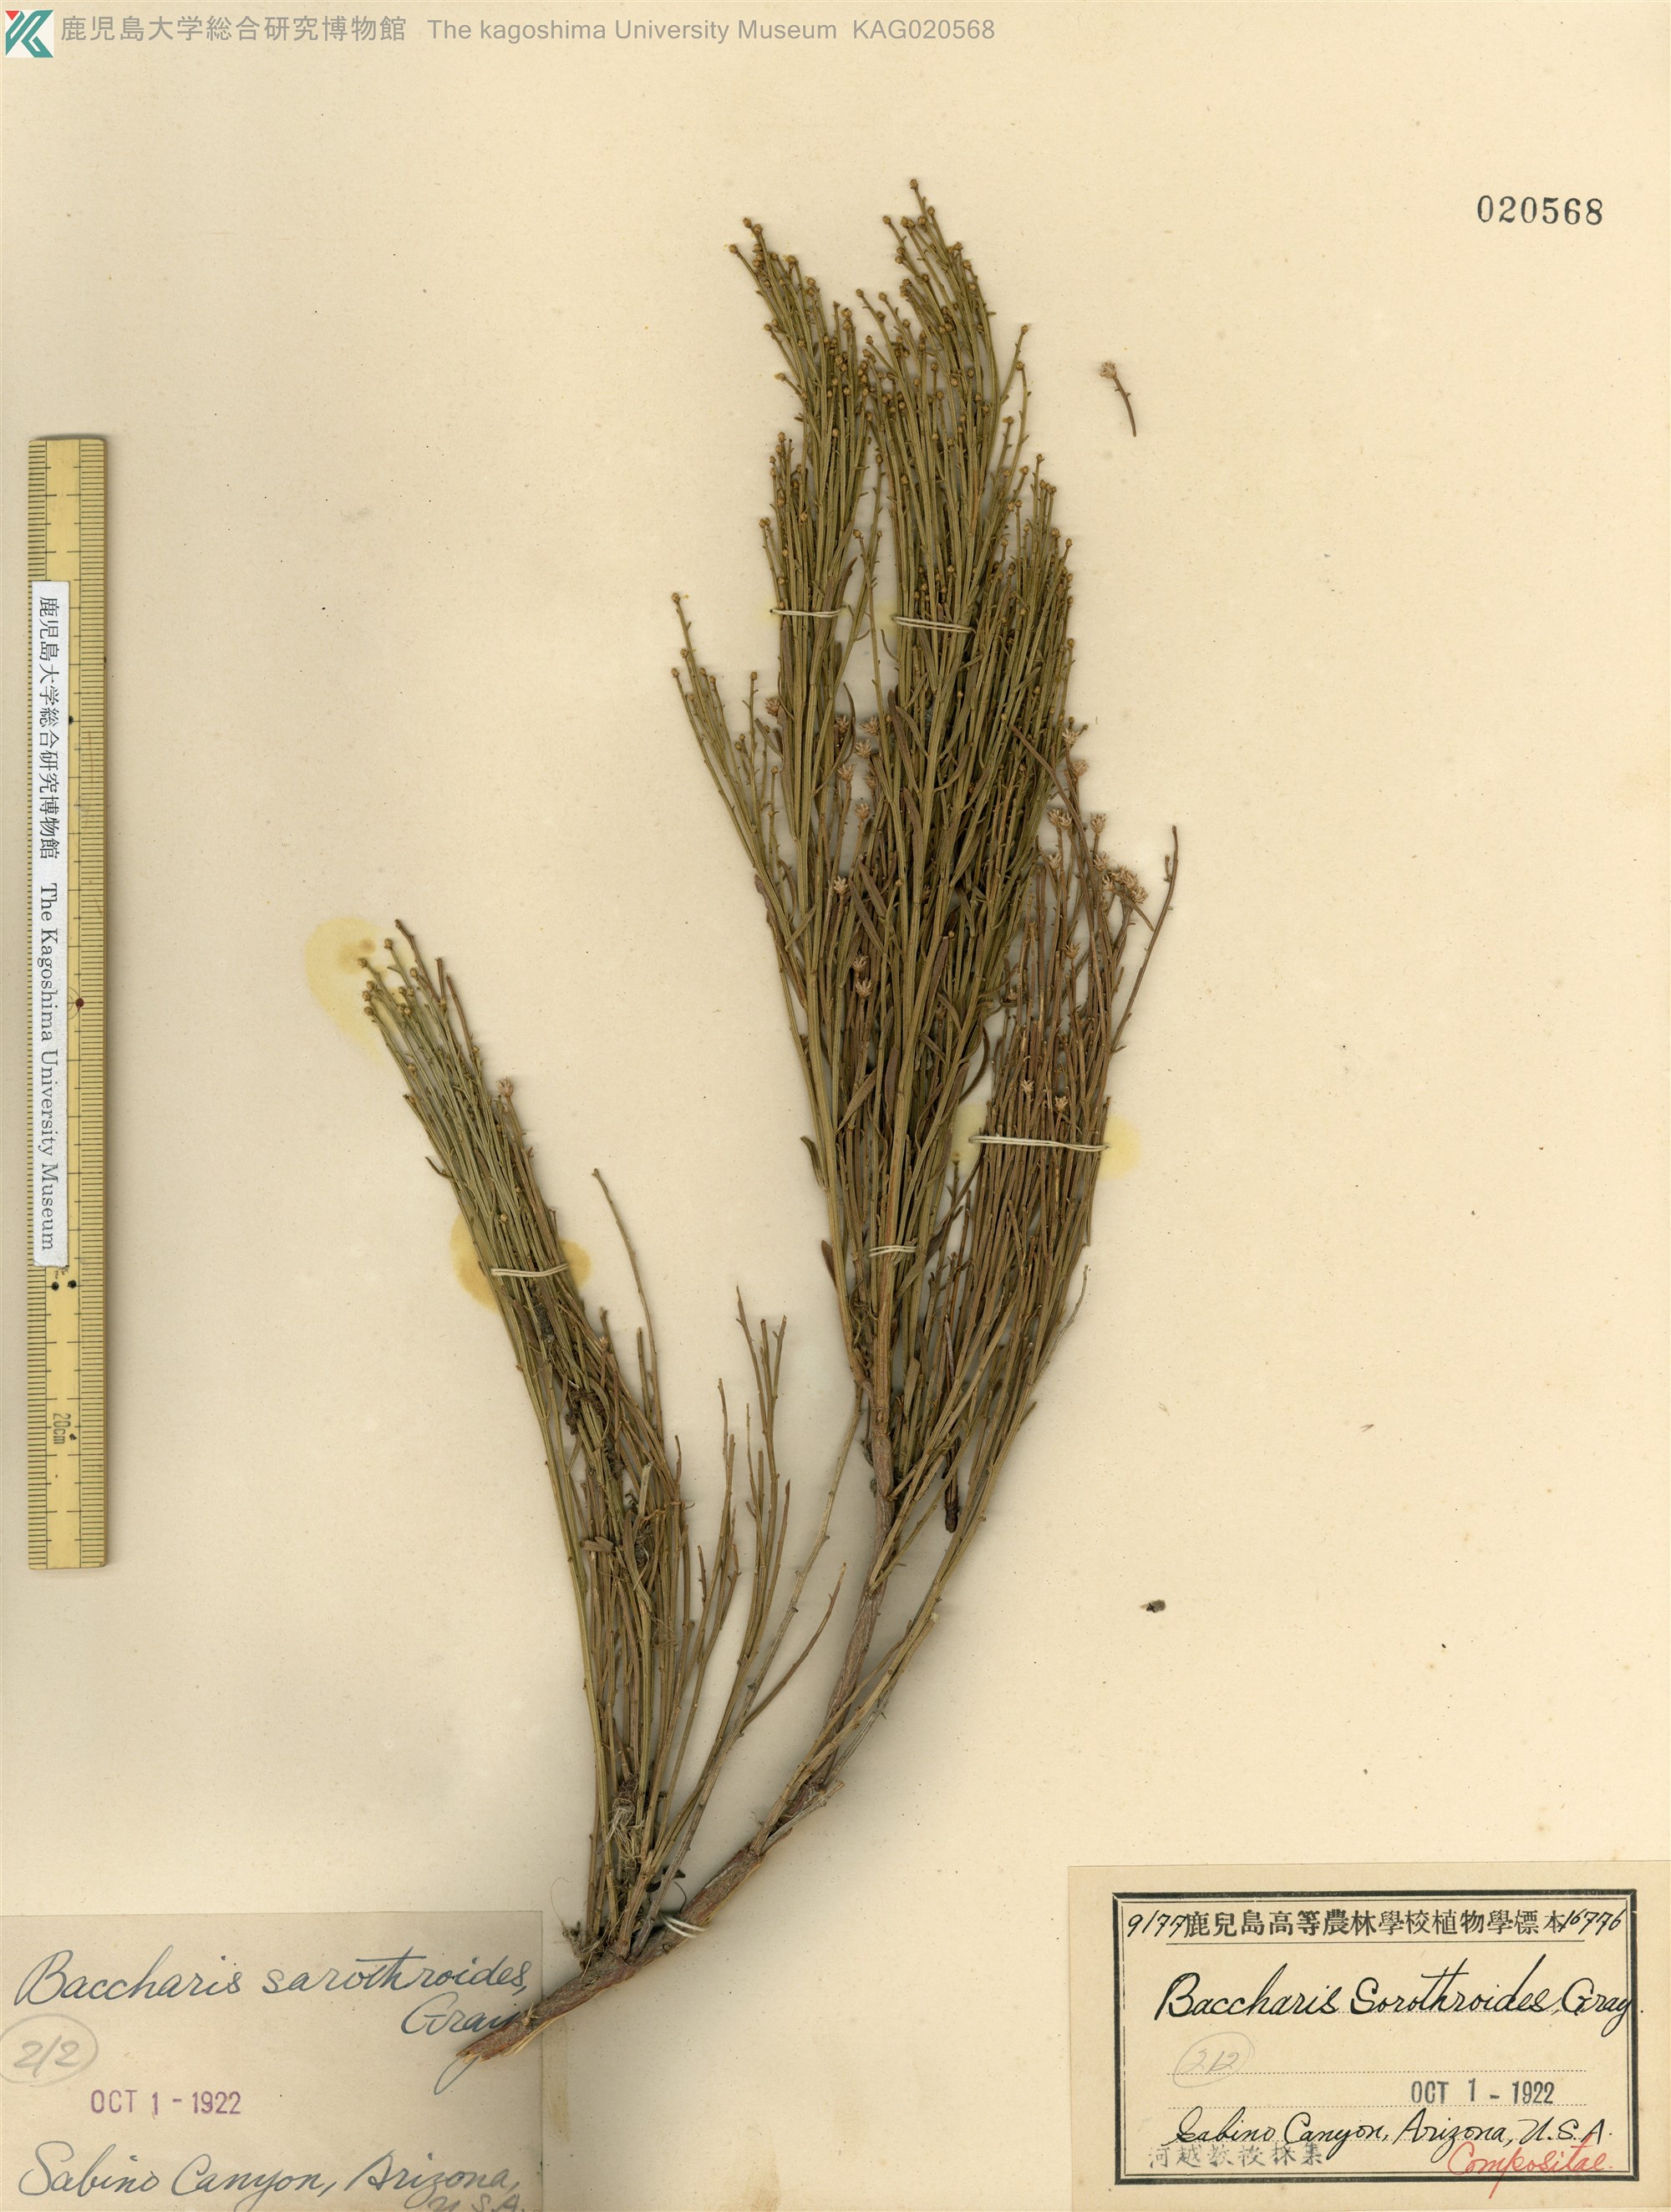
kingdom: Plantae
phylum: Tracheophyta
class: Magnoliopsida
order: Asterales
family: Asteraceae
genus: Baccharis
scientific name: Baccharis
